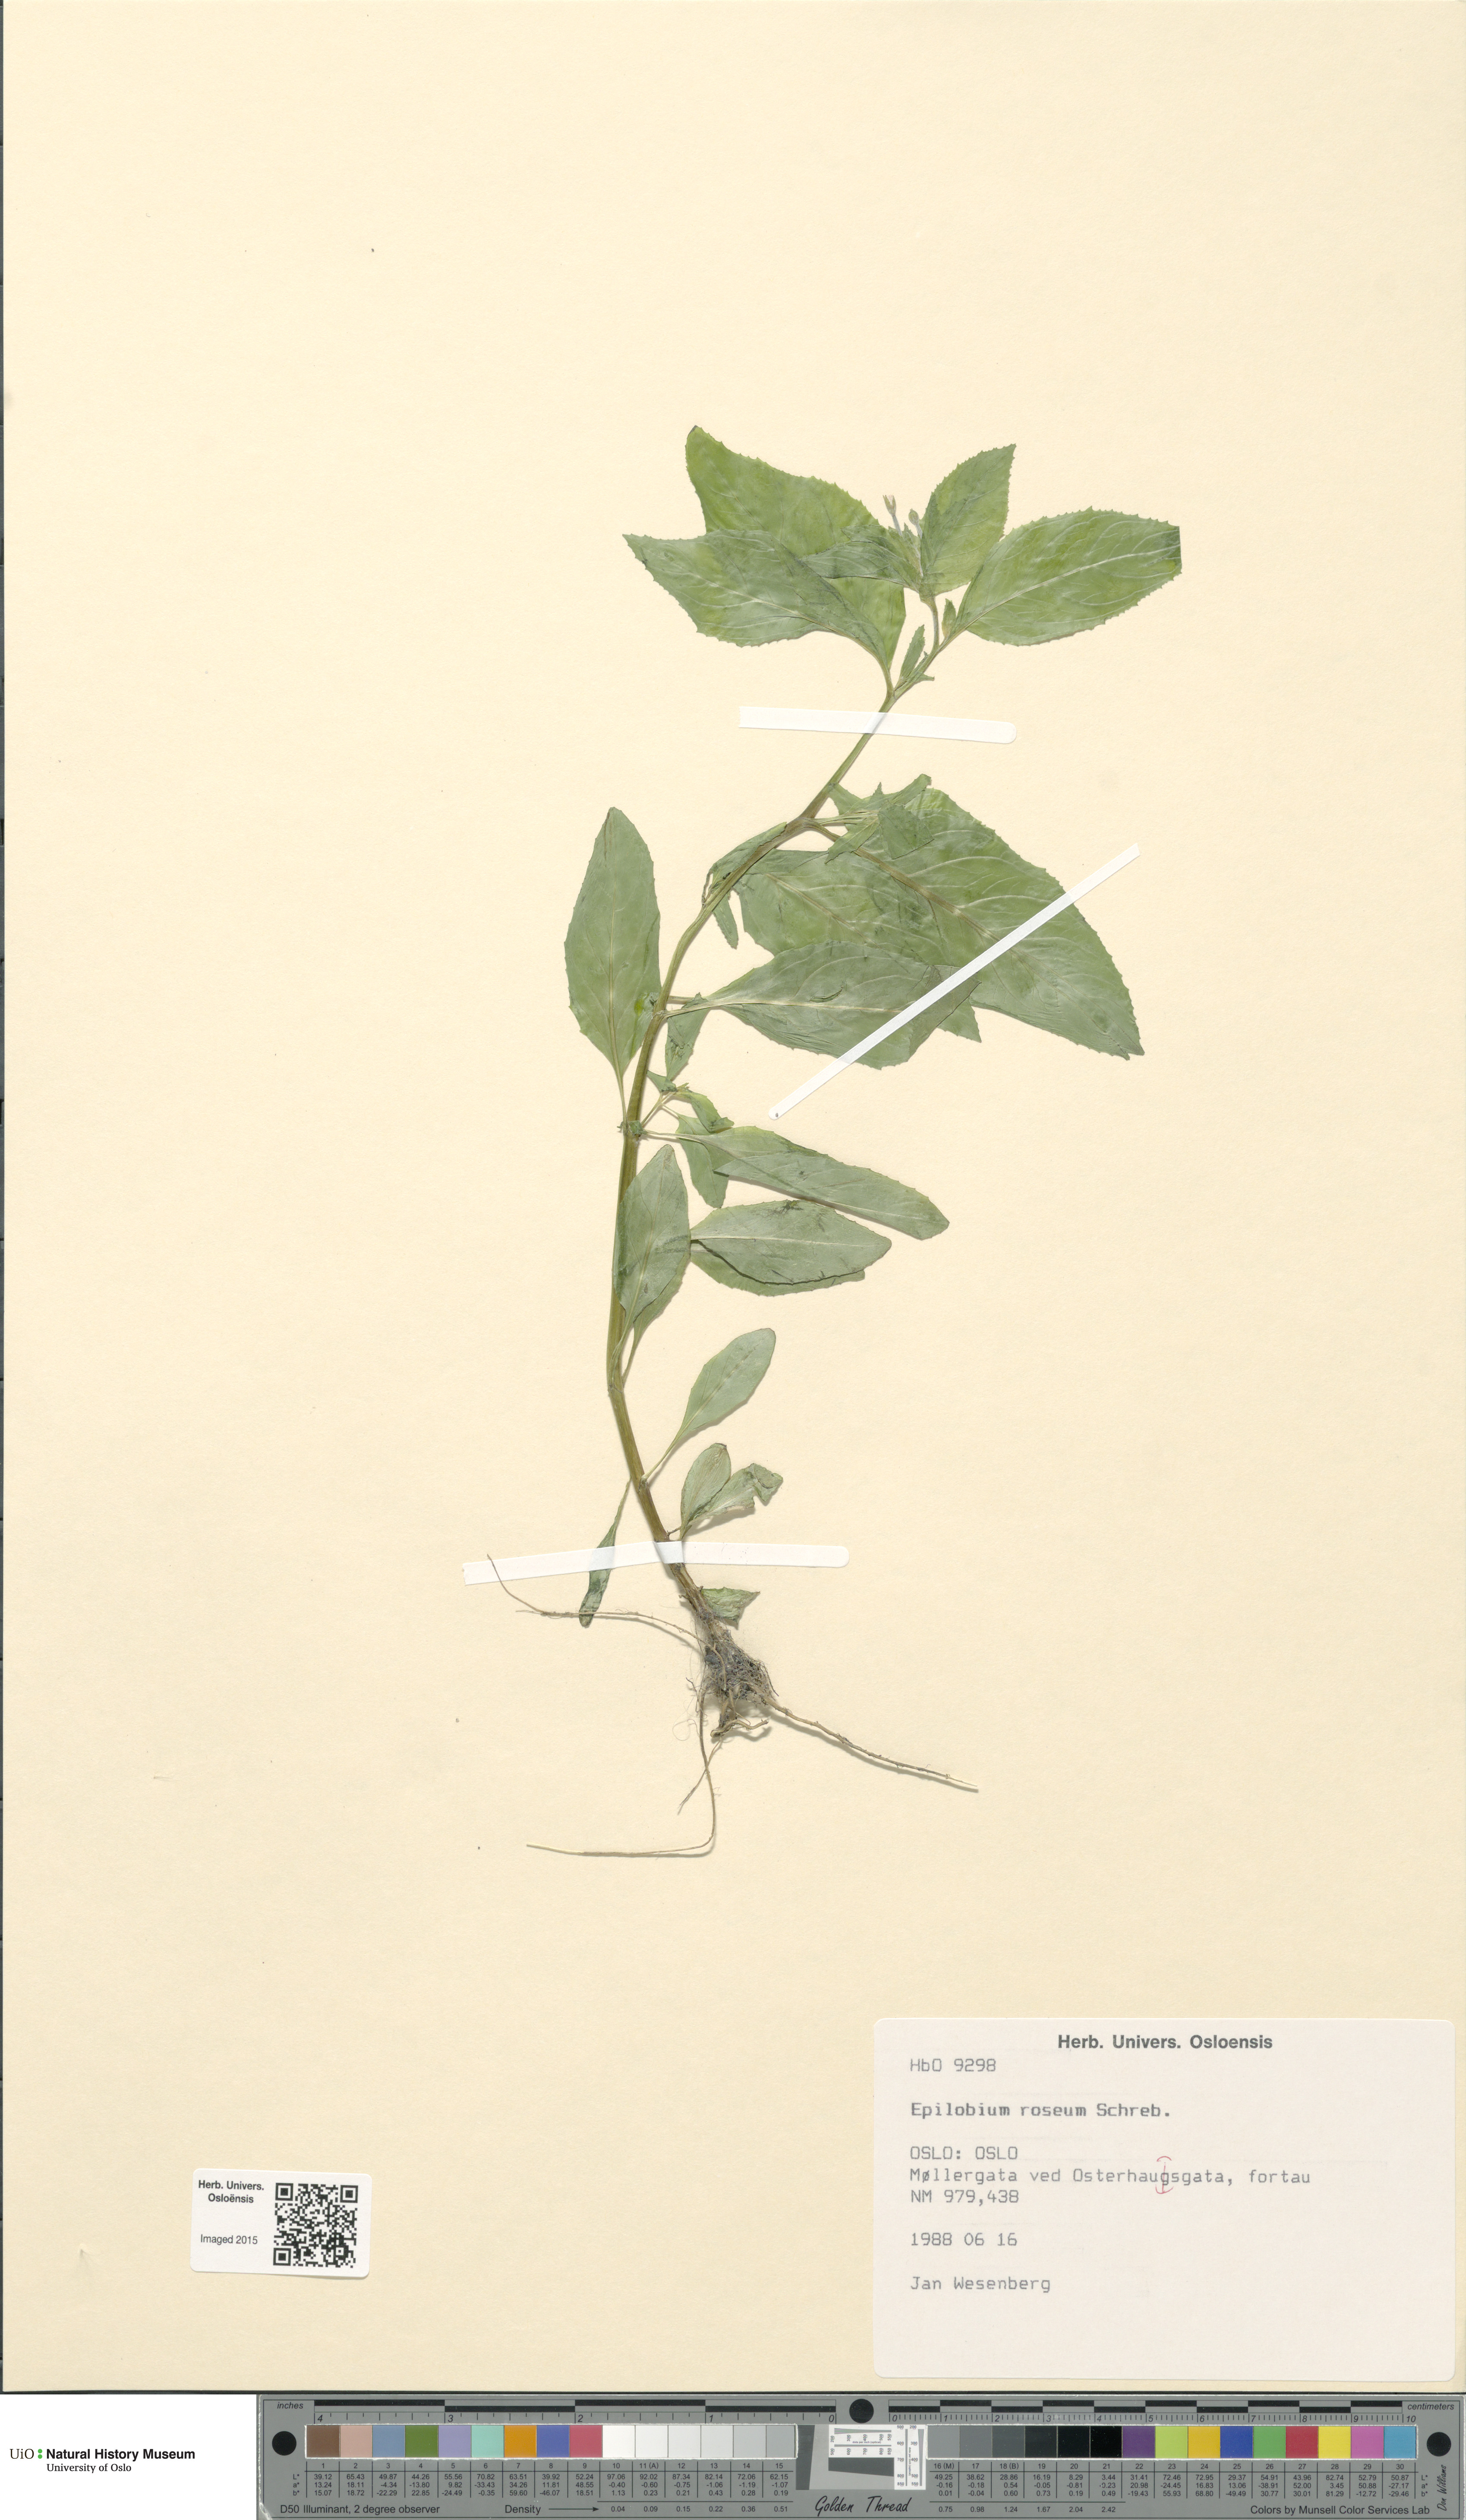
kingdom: Plantae
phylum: Tracheophyta
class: Magnoliopsida
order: Myrtales
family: Onagraceae
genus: Epilobium
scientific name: Epilobium roseum
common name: Pale willowherb
